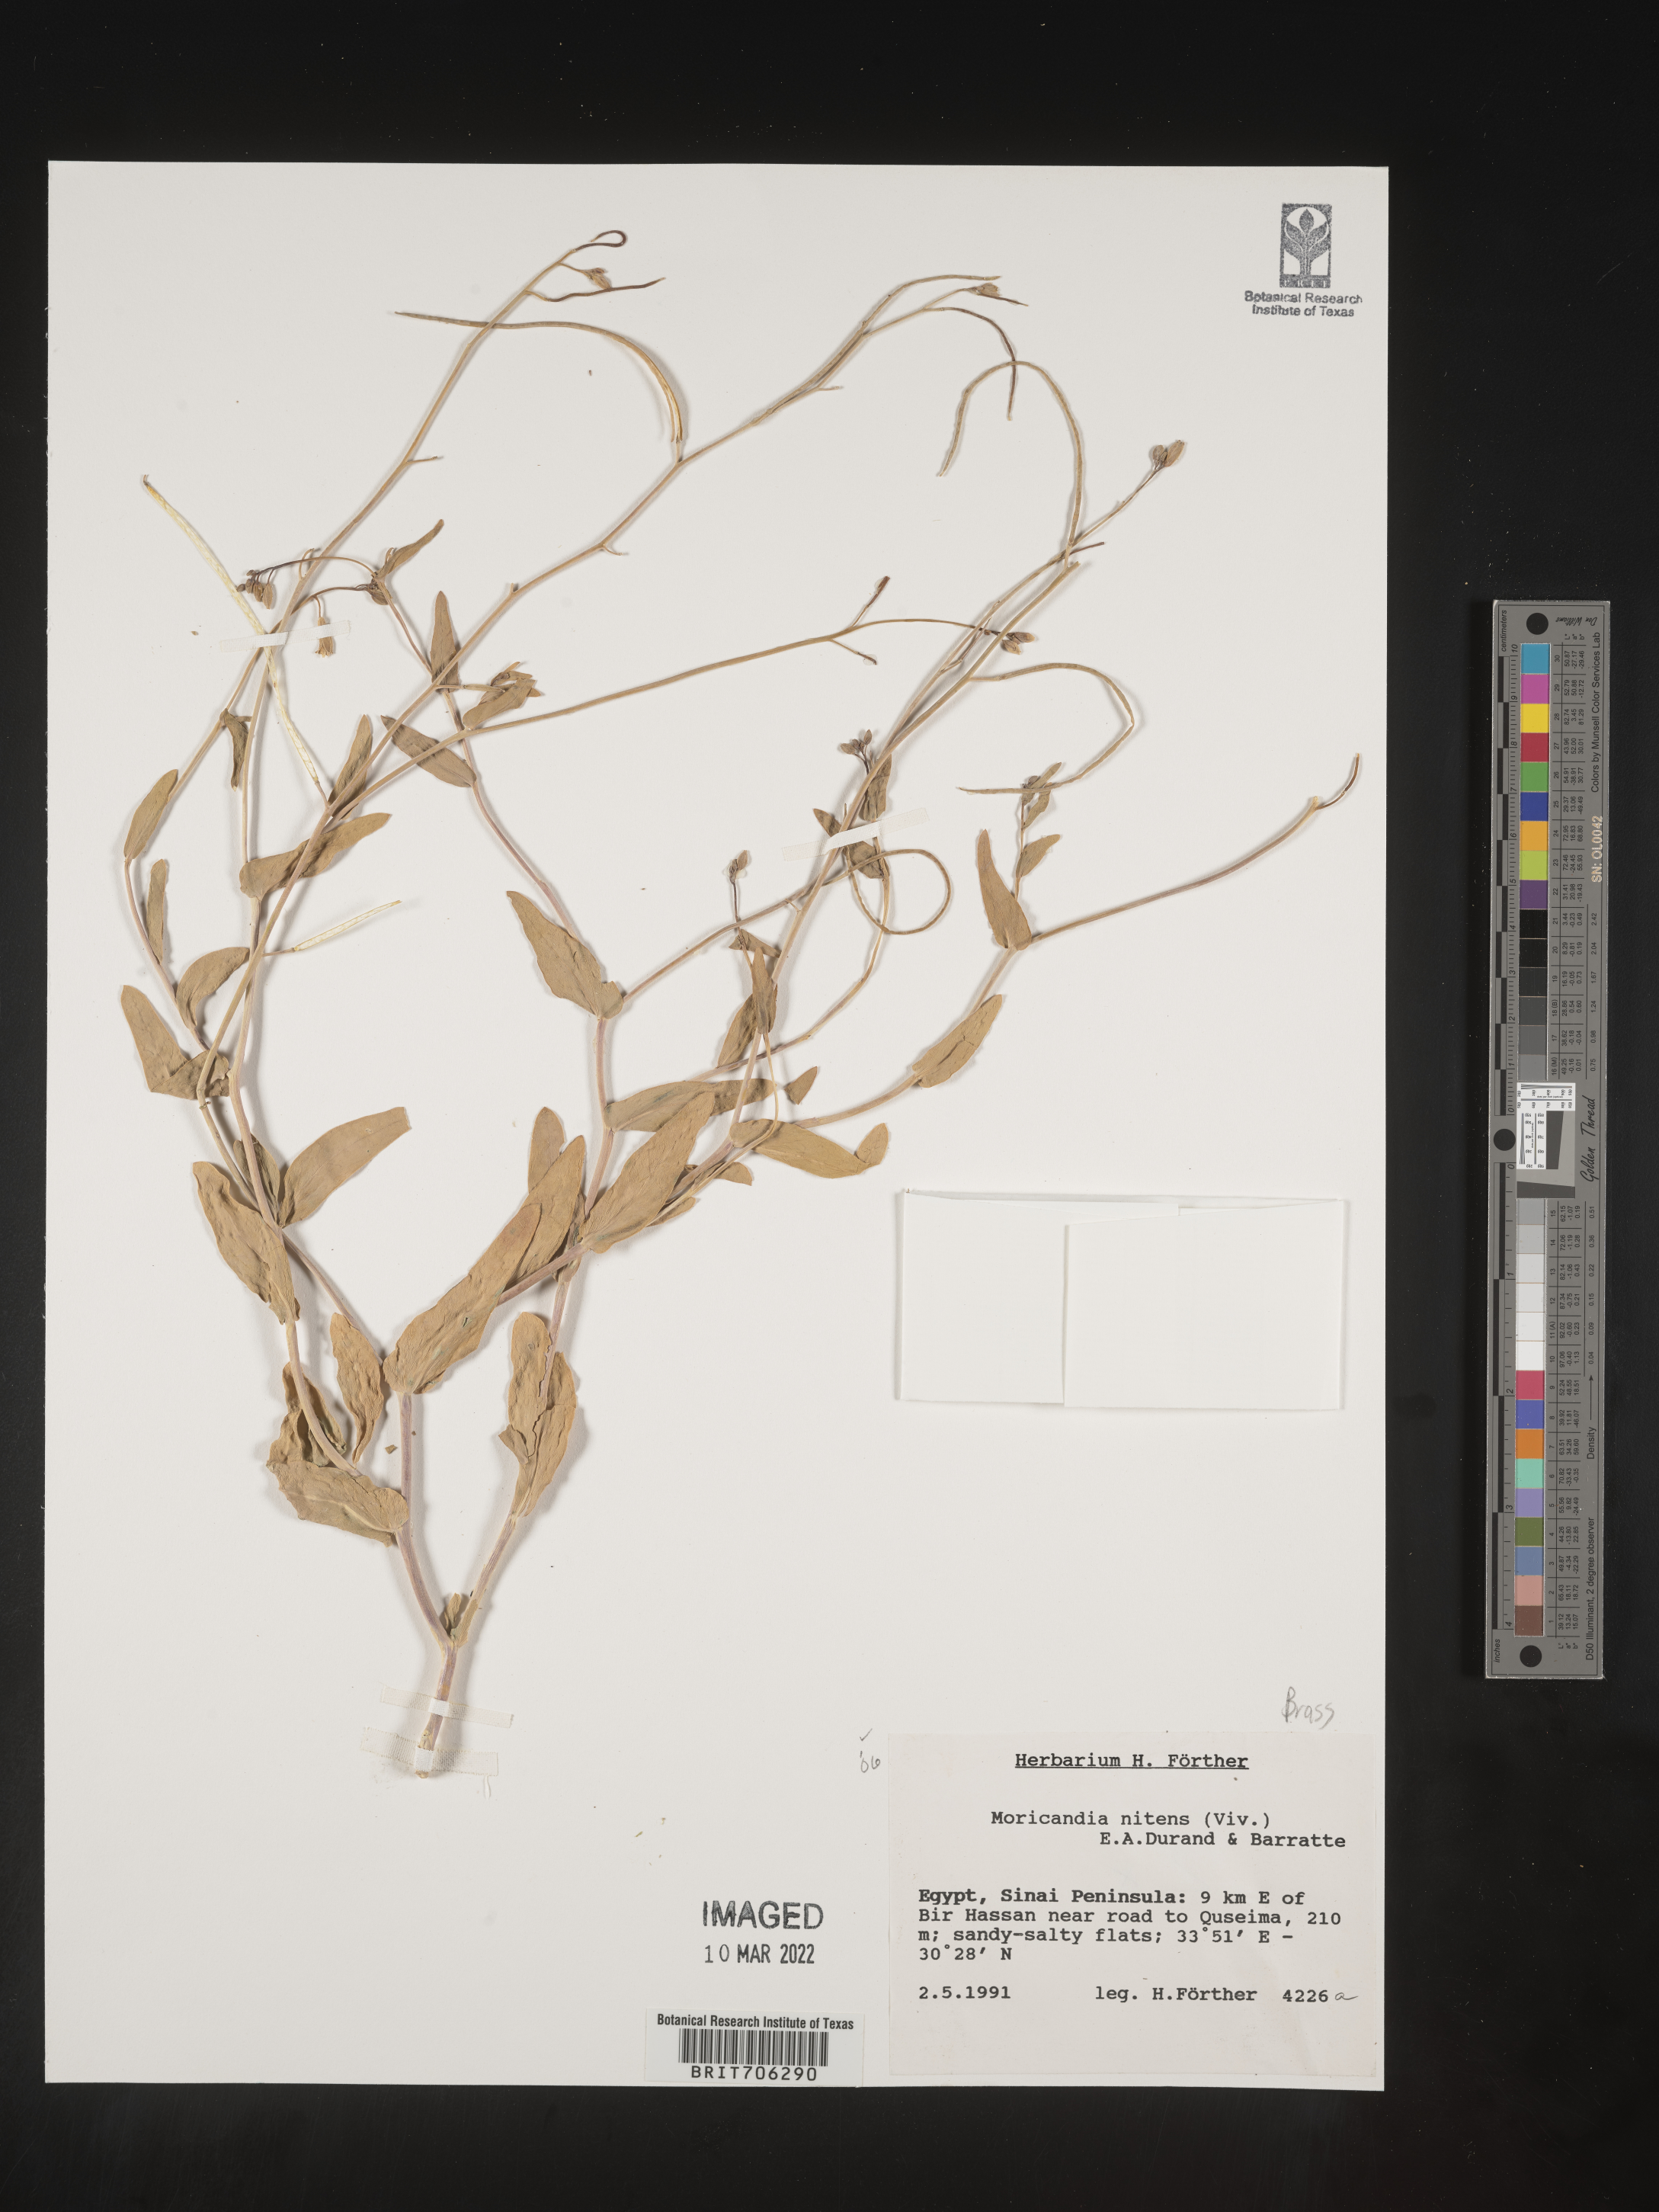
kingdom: Plantae
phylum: Tracheophyta
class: Magnoliopsida
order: Brassicales
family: Brassicaceae
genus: Moricandia
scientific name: Moricandia
